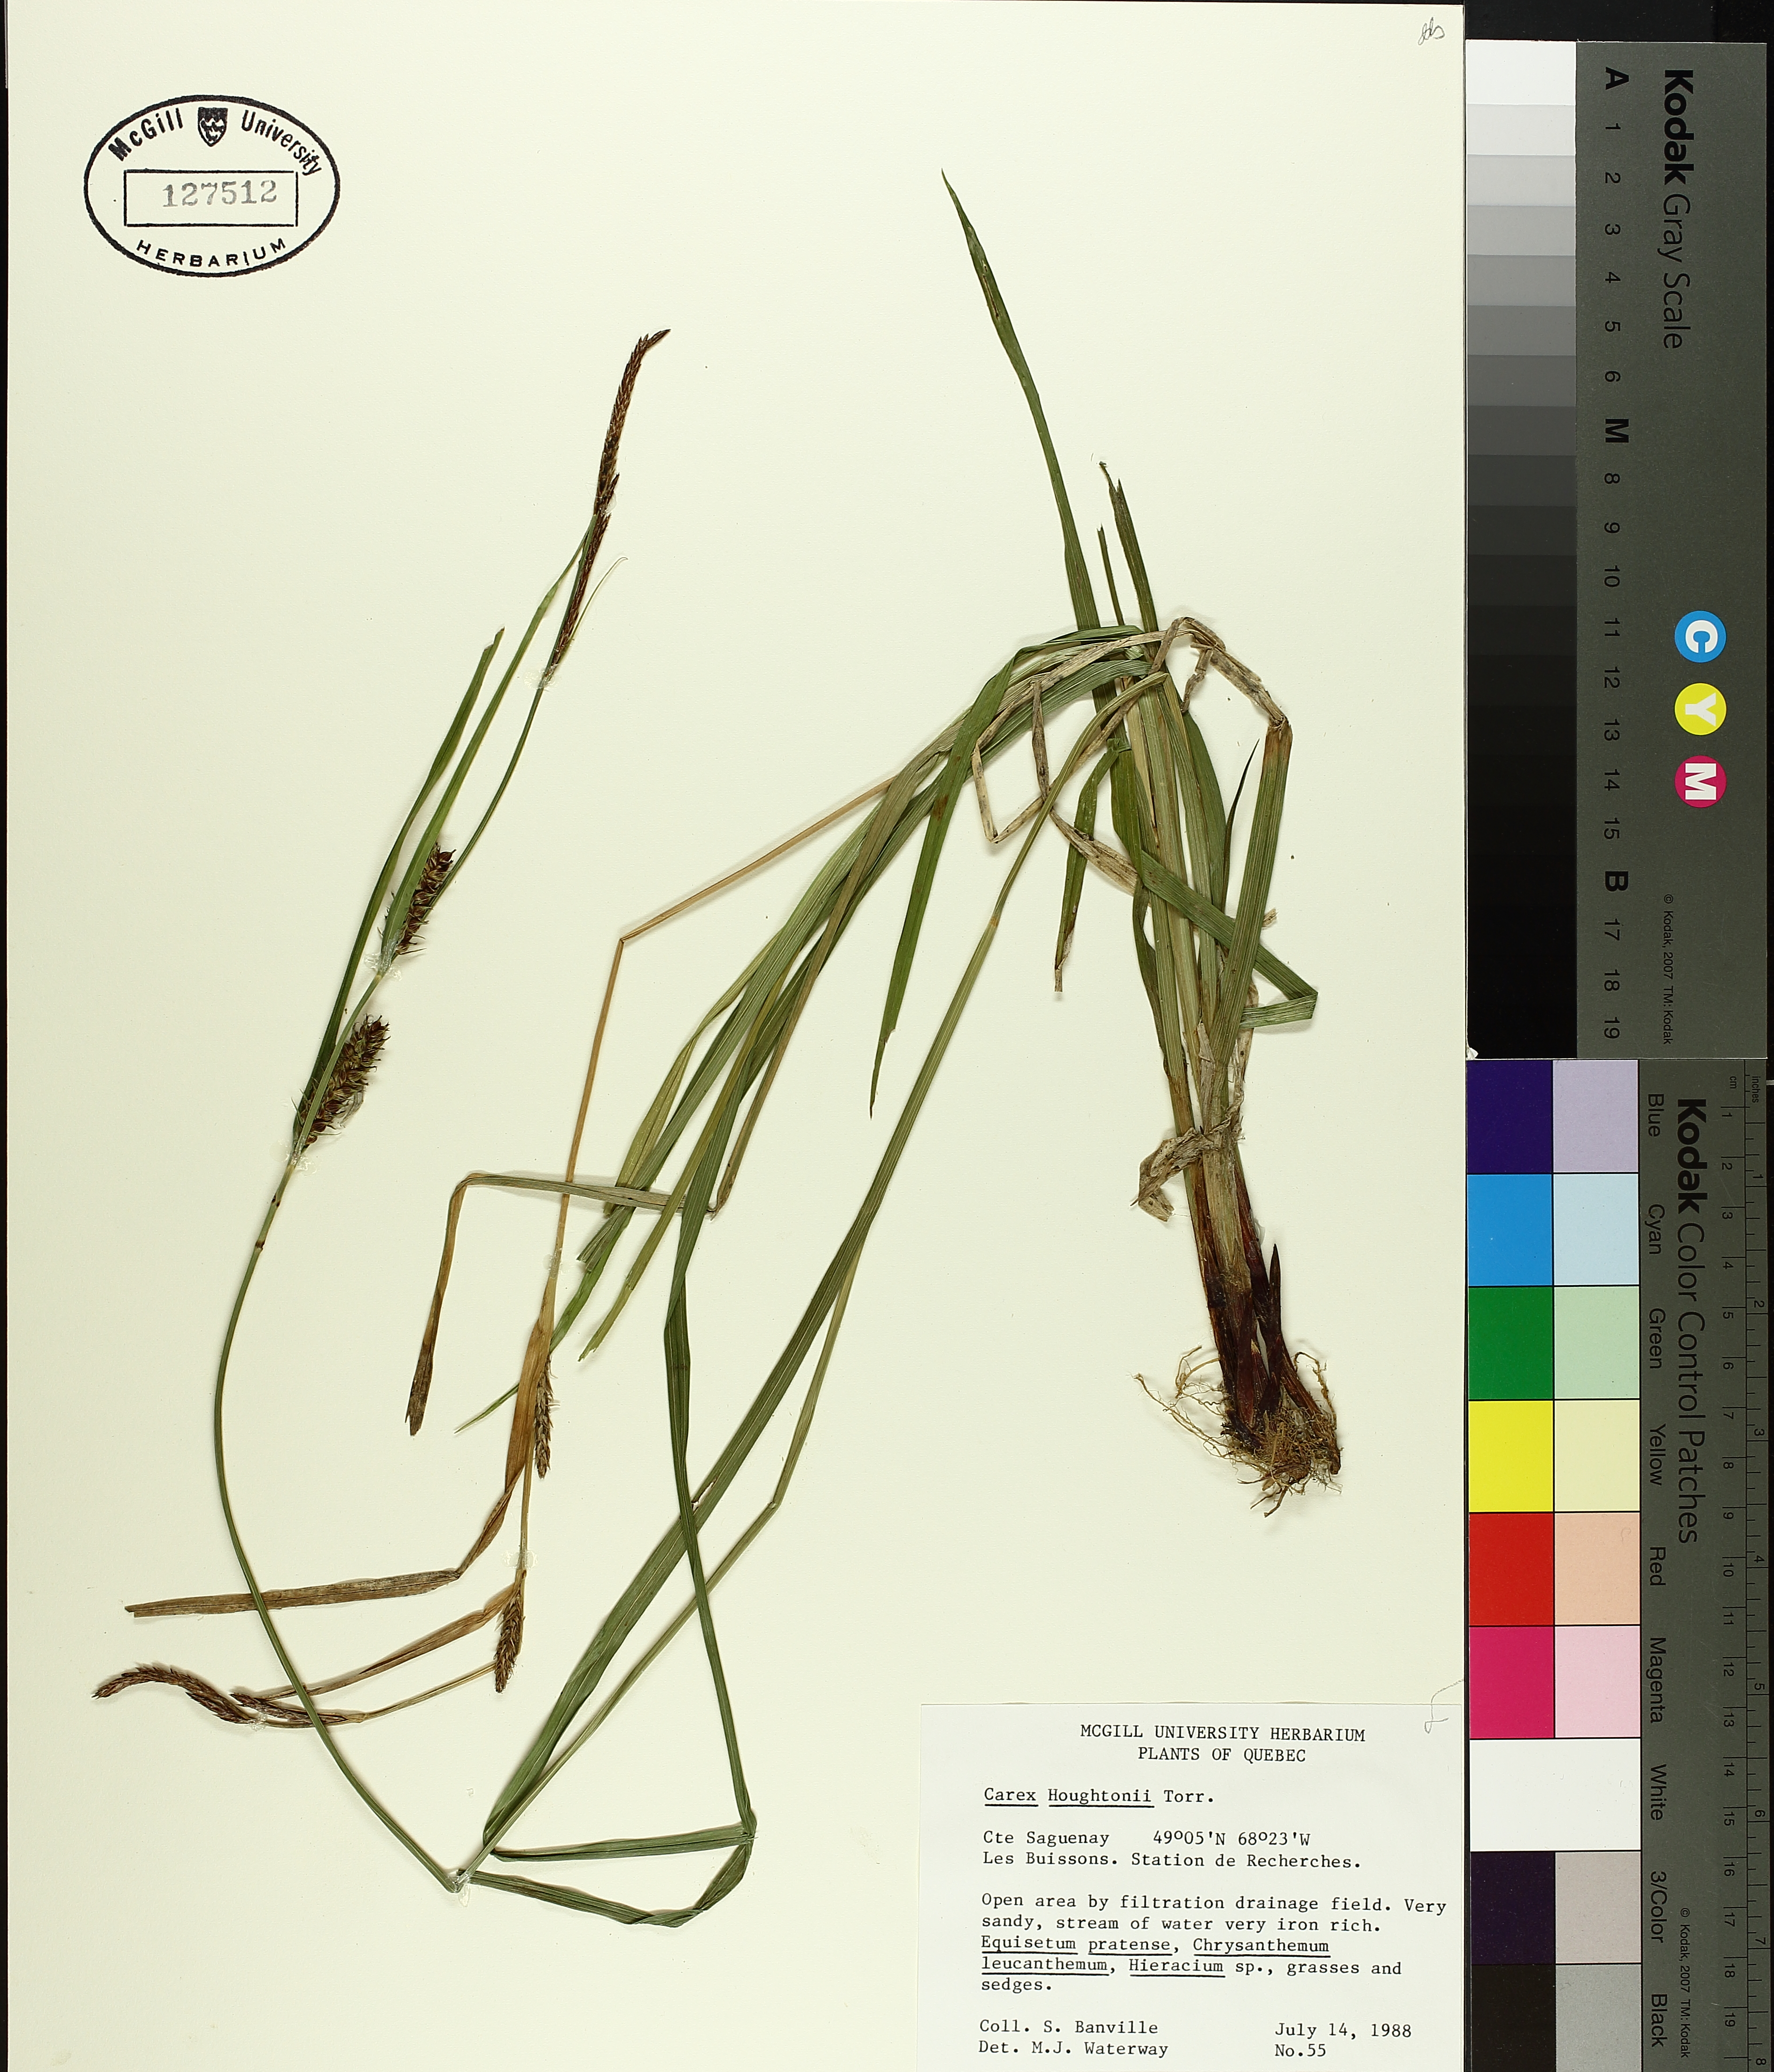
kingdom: Plantae
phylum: Tracheophyta
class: Liliopsida
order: Poales
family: Cyperaceae
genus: Carex
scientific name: Carex houghtoniana
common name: Houghton's sedge
